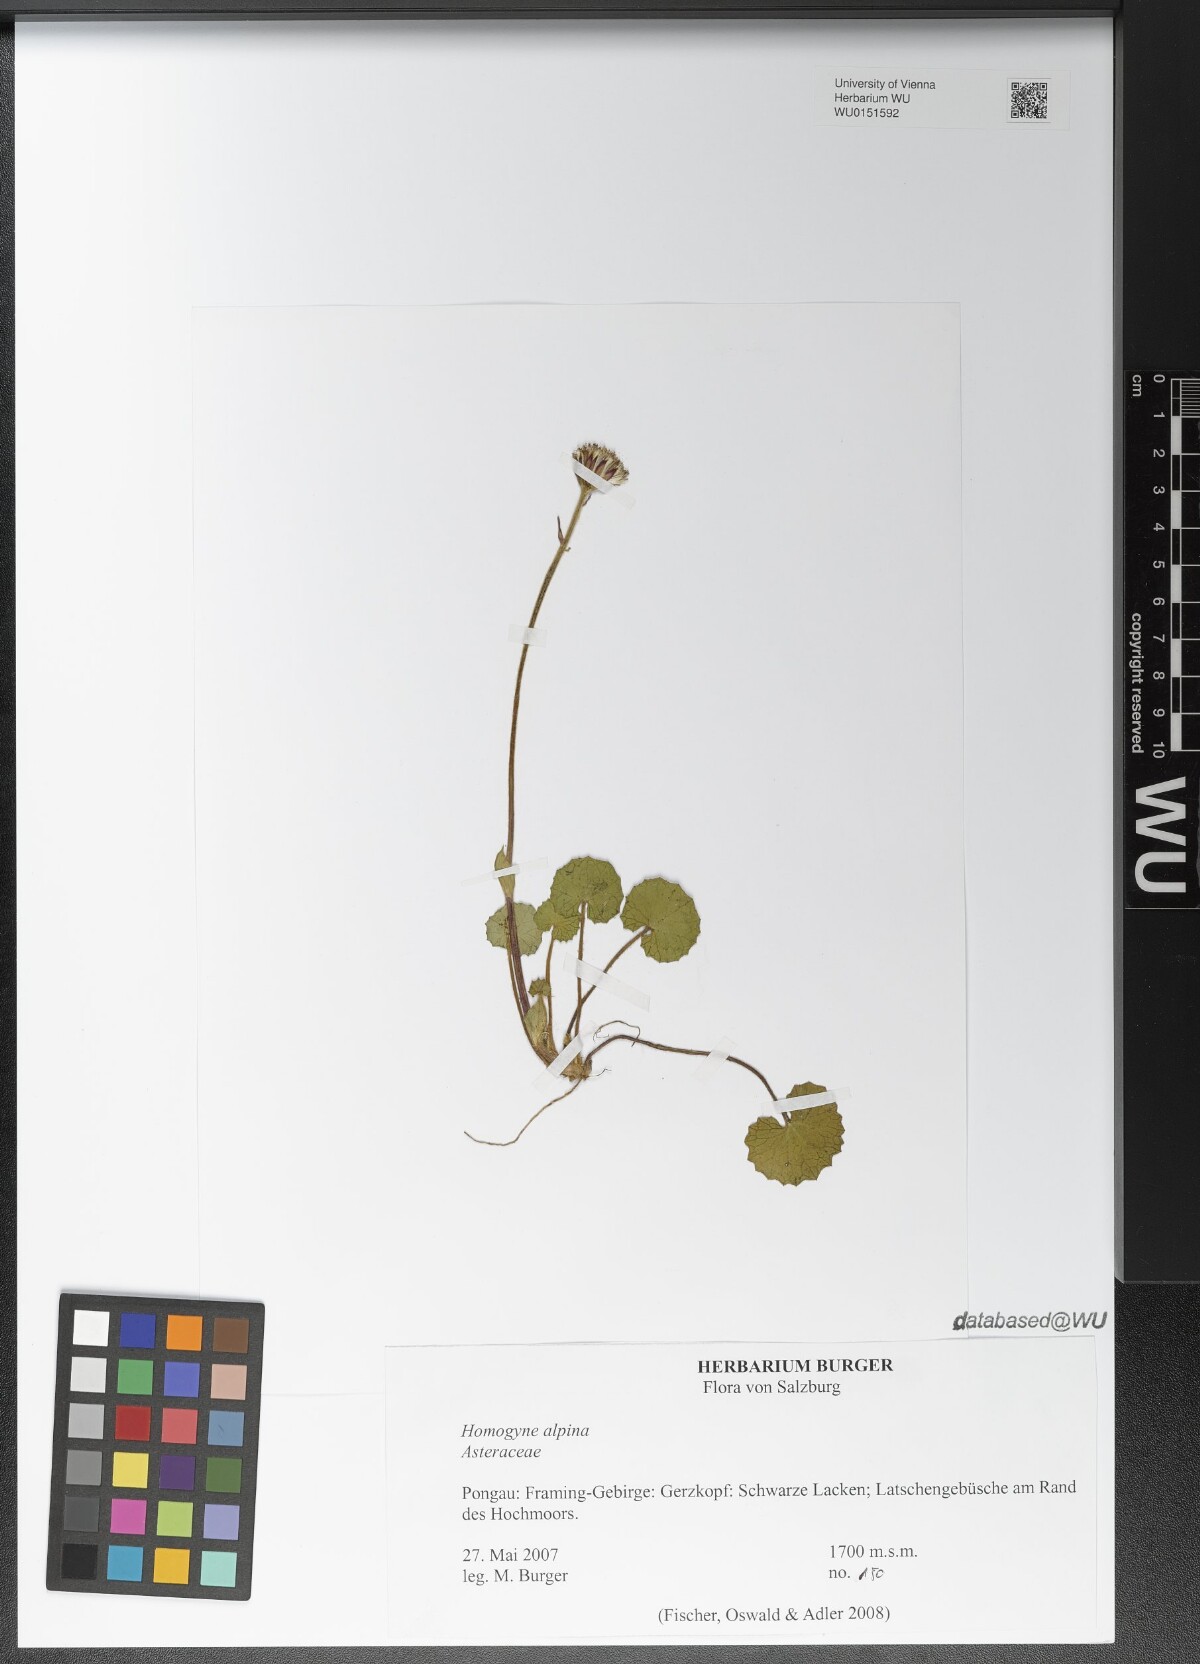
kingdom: Plantae
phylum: Tracheophyta
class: Magnoliopsida
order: Asterales
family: Asteraceae
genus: Homogyne
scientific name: Homogyne alpina
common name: Purple colt's-foot
